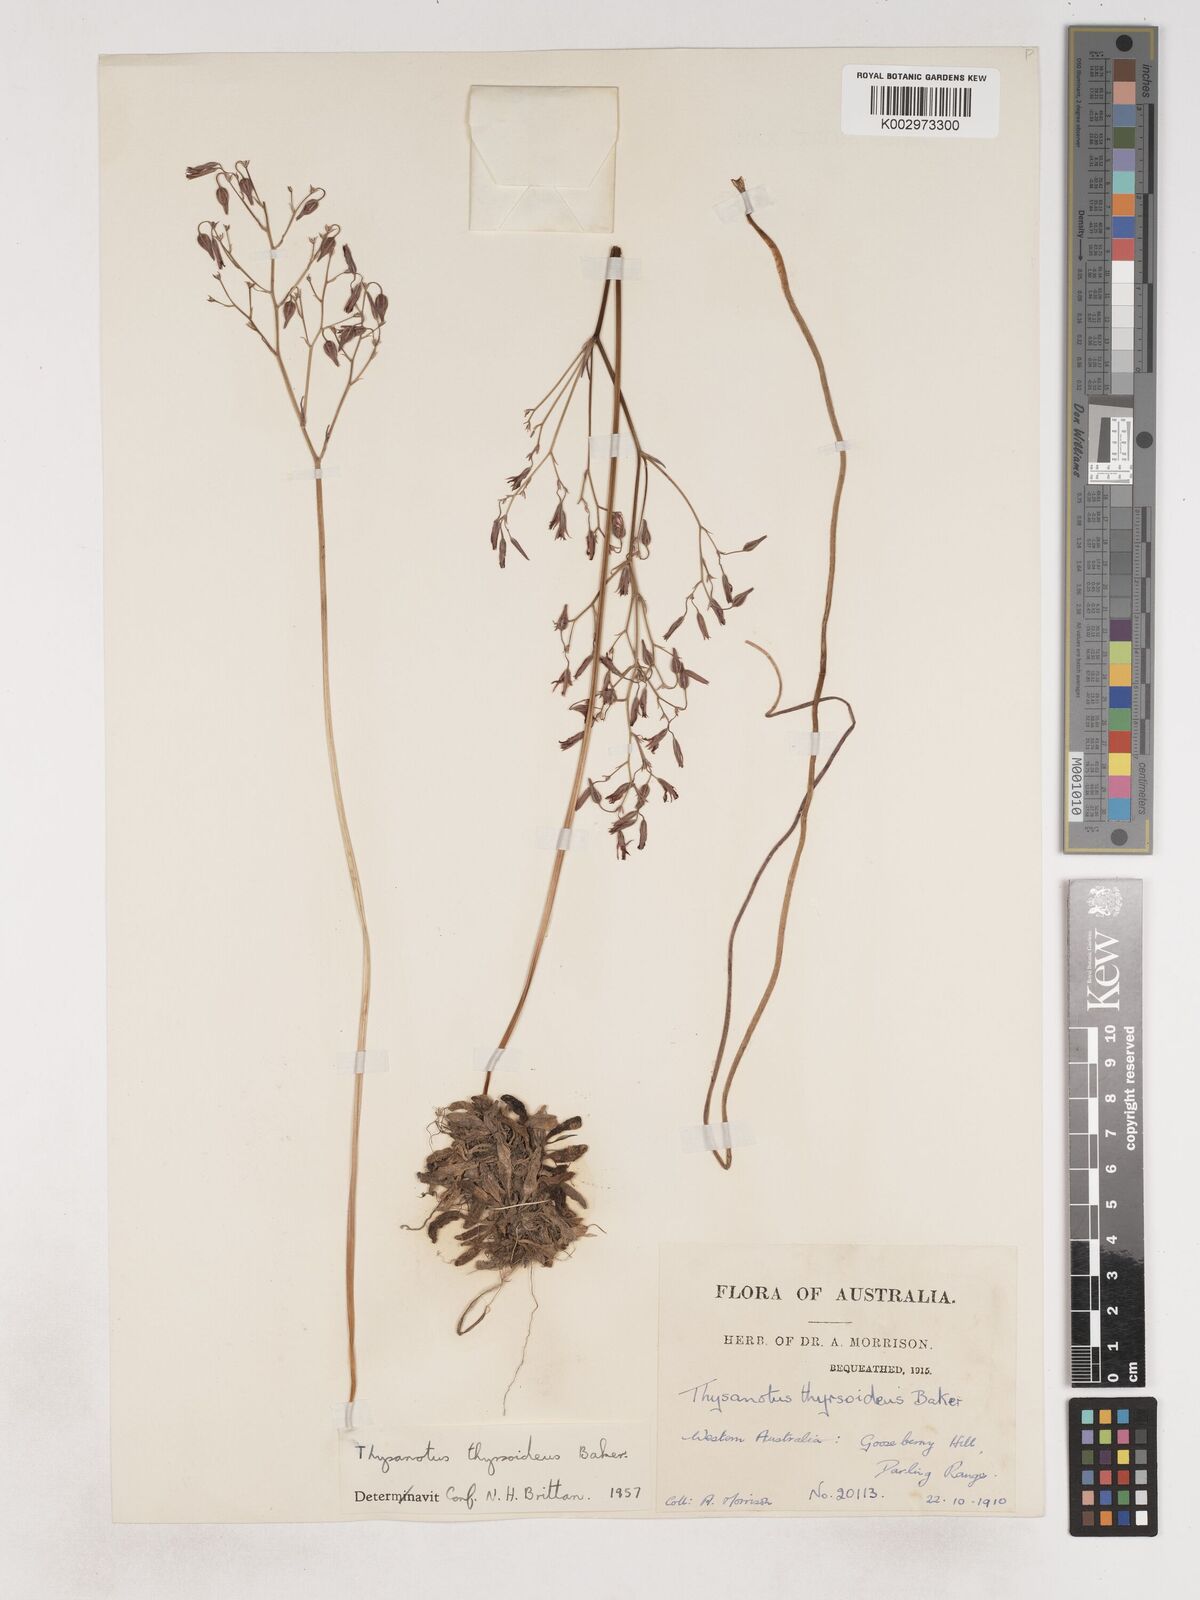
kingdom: Plantae
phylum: Tracheophyta
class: Liliopsida
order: Asparagales
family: Asparagaceae
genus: Thysanotus
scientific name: Thysanotus thyrsoideus
